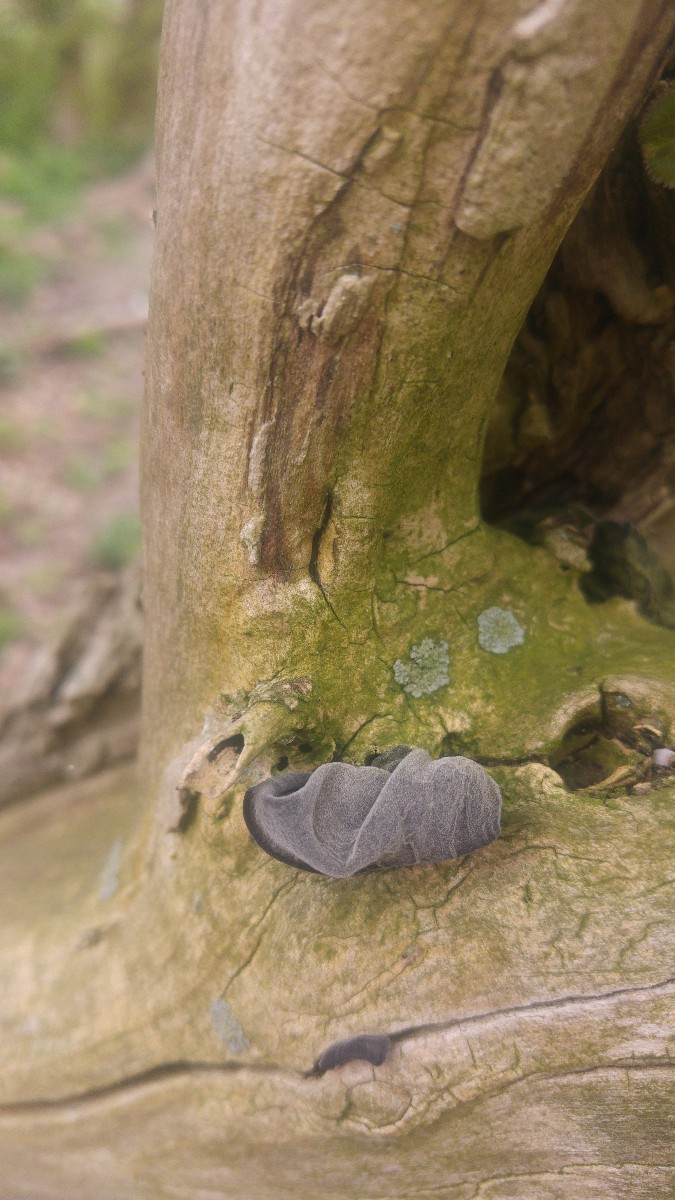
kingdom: Fungi
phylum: Basidiomycota
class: Agaricomycetes
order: Auriculariales
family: Auriculariaceae
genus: Auricularia
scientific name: Auricularia auricula-judae
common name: almindelig judasøre
